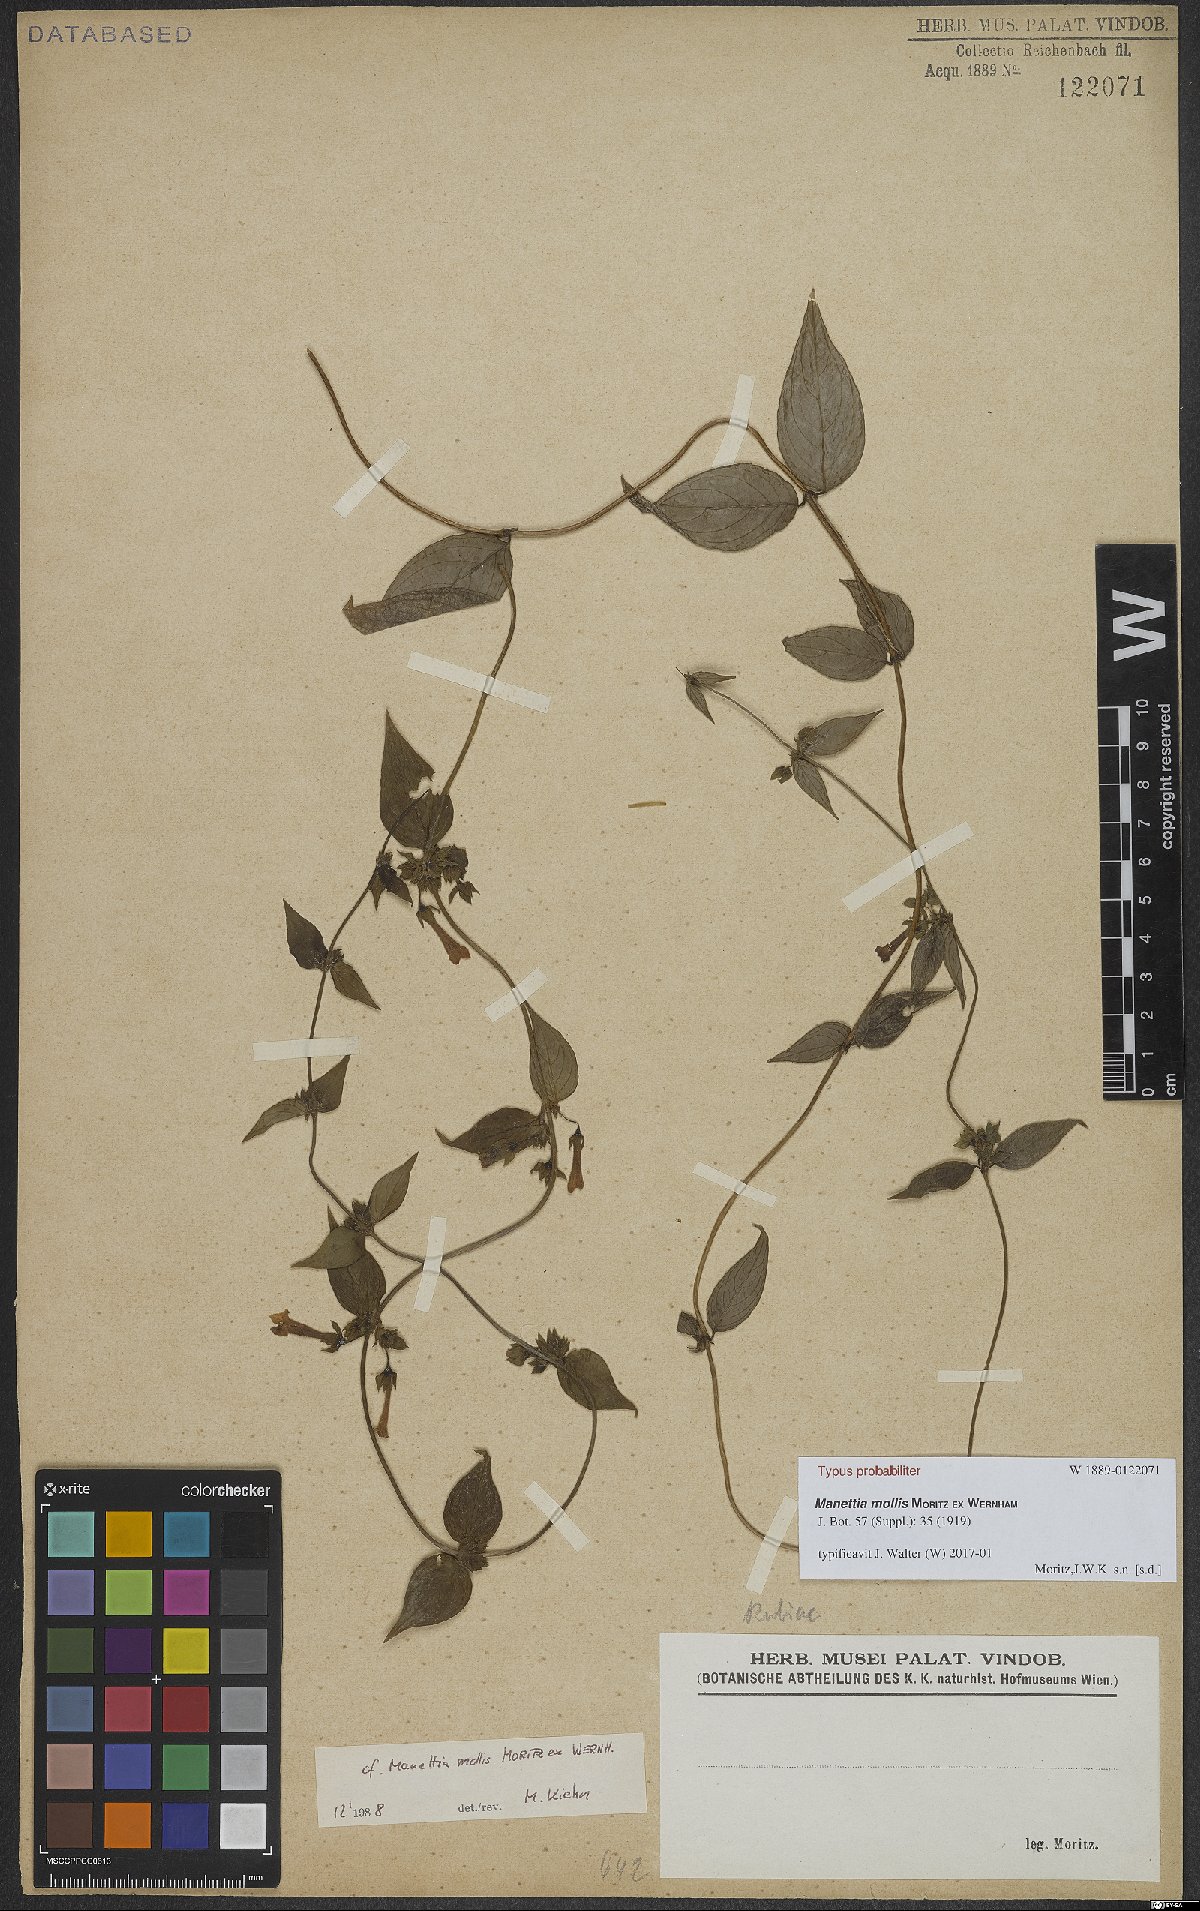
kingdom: Plantae
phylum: Tracheophyta
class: Magnoliopsida
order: Gentianales
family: Rubiaceae
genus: Manettia
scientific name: Manettia mollis
